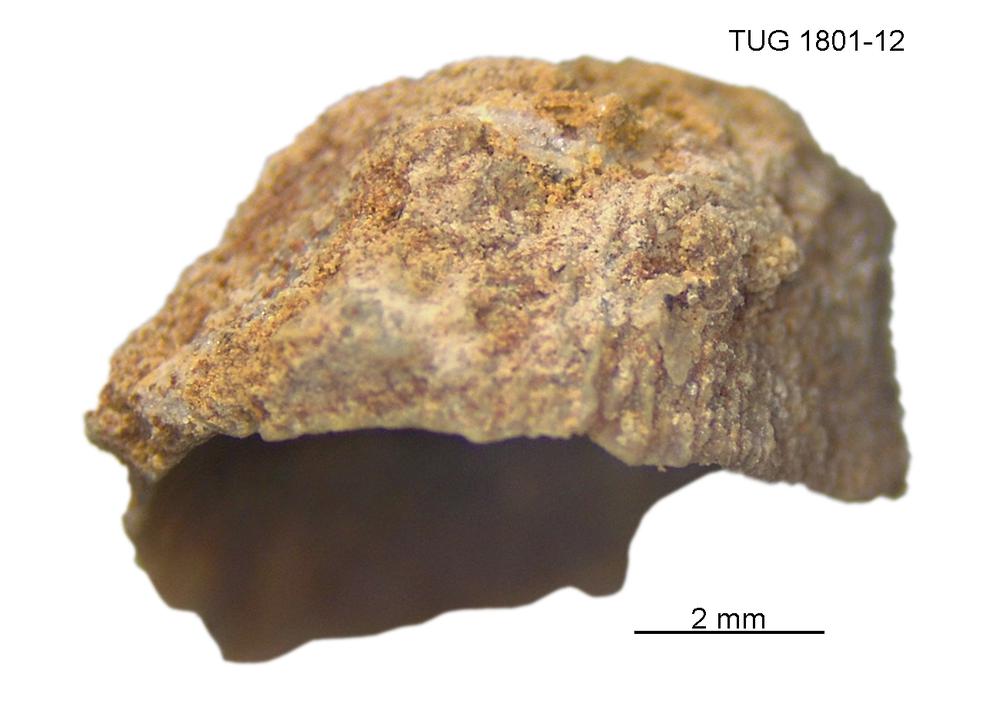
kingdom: Animalia
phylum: Brachiopoda
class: Craniata
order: Craniida
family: Craniidae
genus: Philhedra
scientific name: Philhedra
